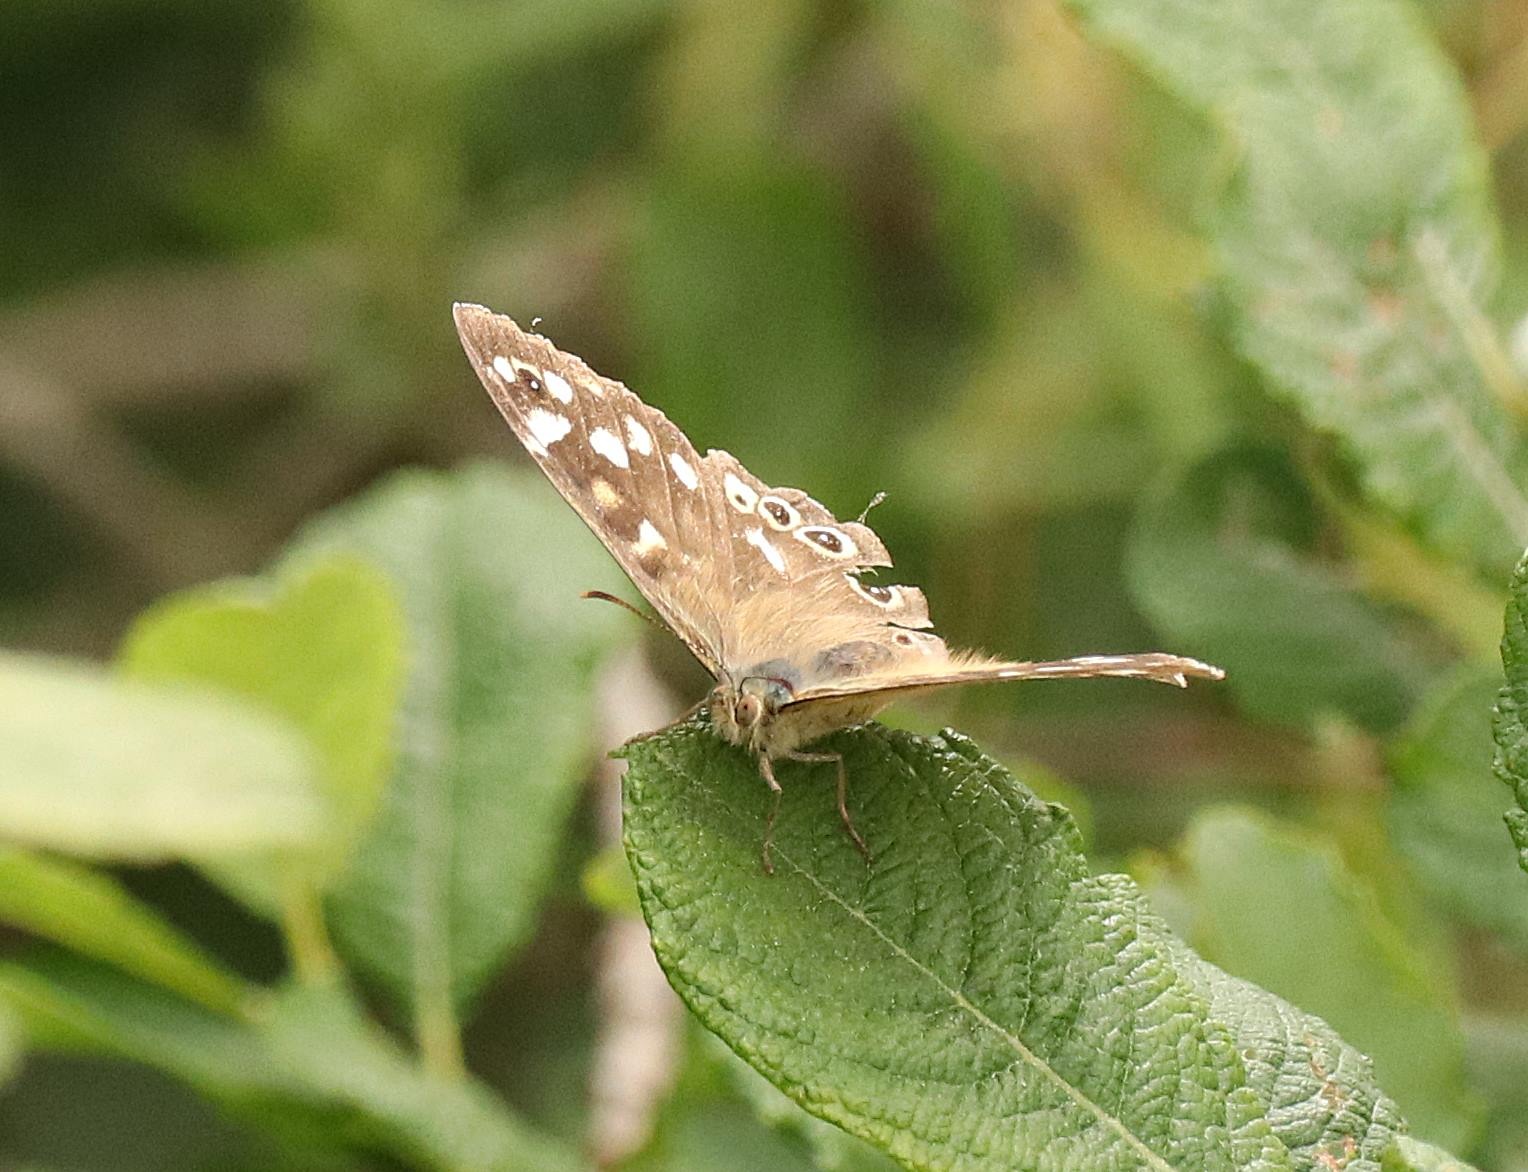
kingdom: Animalia
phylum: Arthropoda
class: Insecta
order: Lepidoptera
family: Nymphalidae
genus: Pararge
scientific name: Pararge aegeria
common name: Skovrandøje
